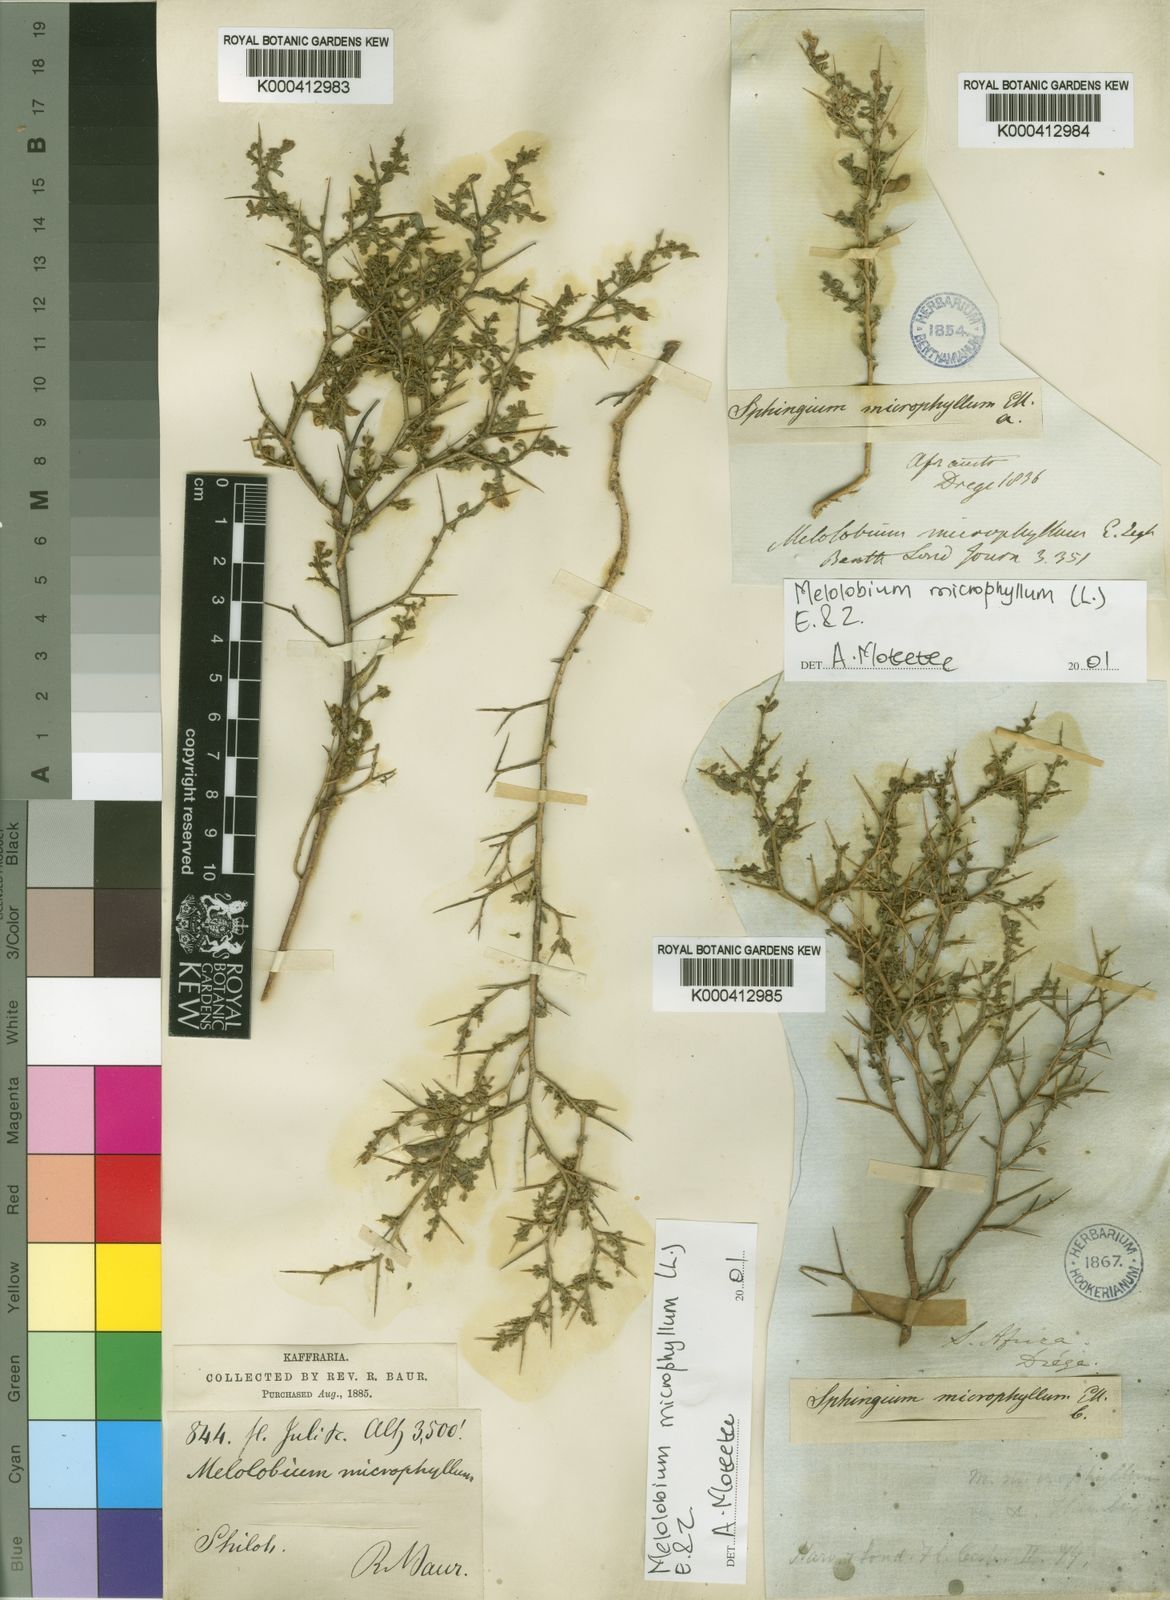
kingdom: Plantae
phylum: Tracheophyta
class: Magnoliopsida
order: Fabales
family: Fabaceae
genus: Melolobium
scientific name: Melolobium microphyllum
